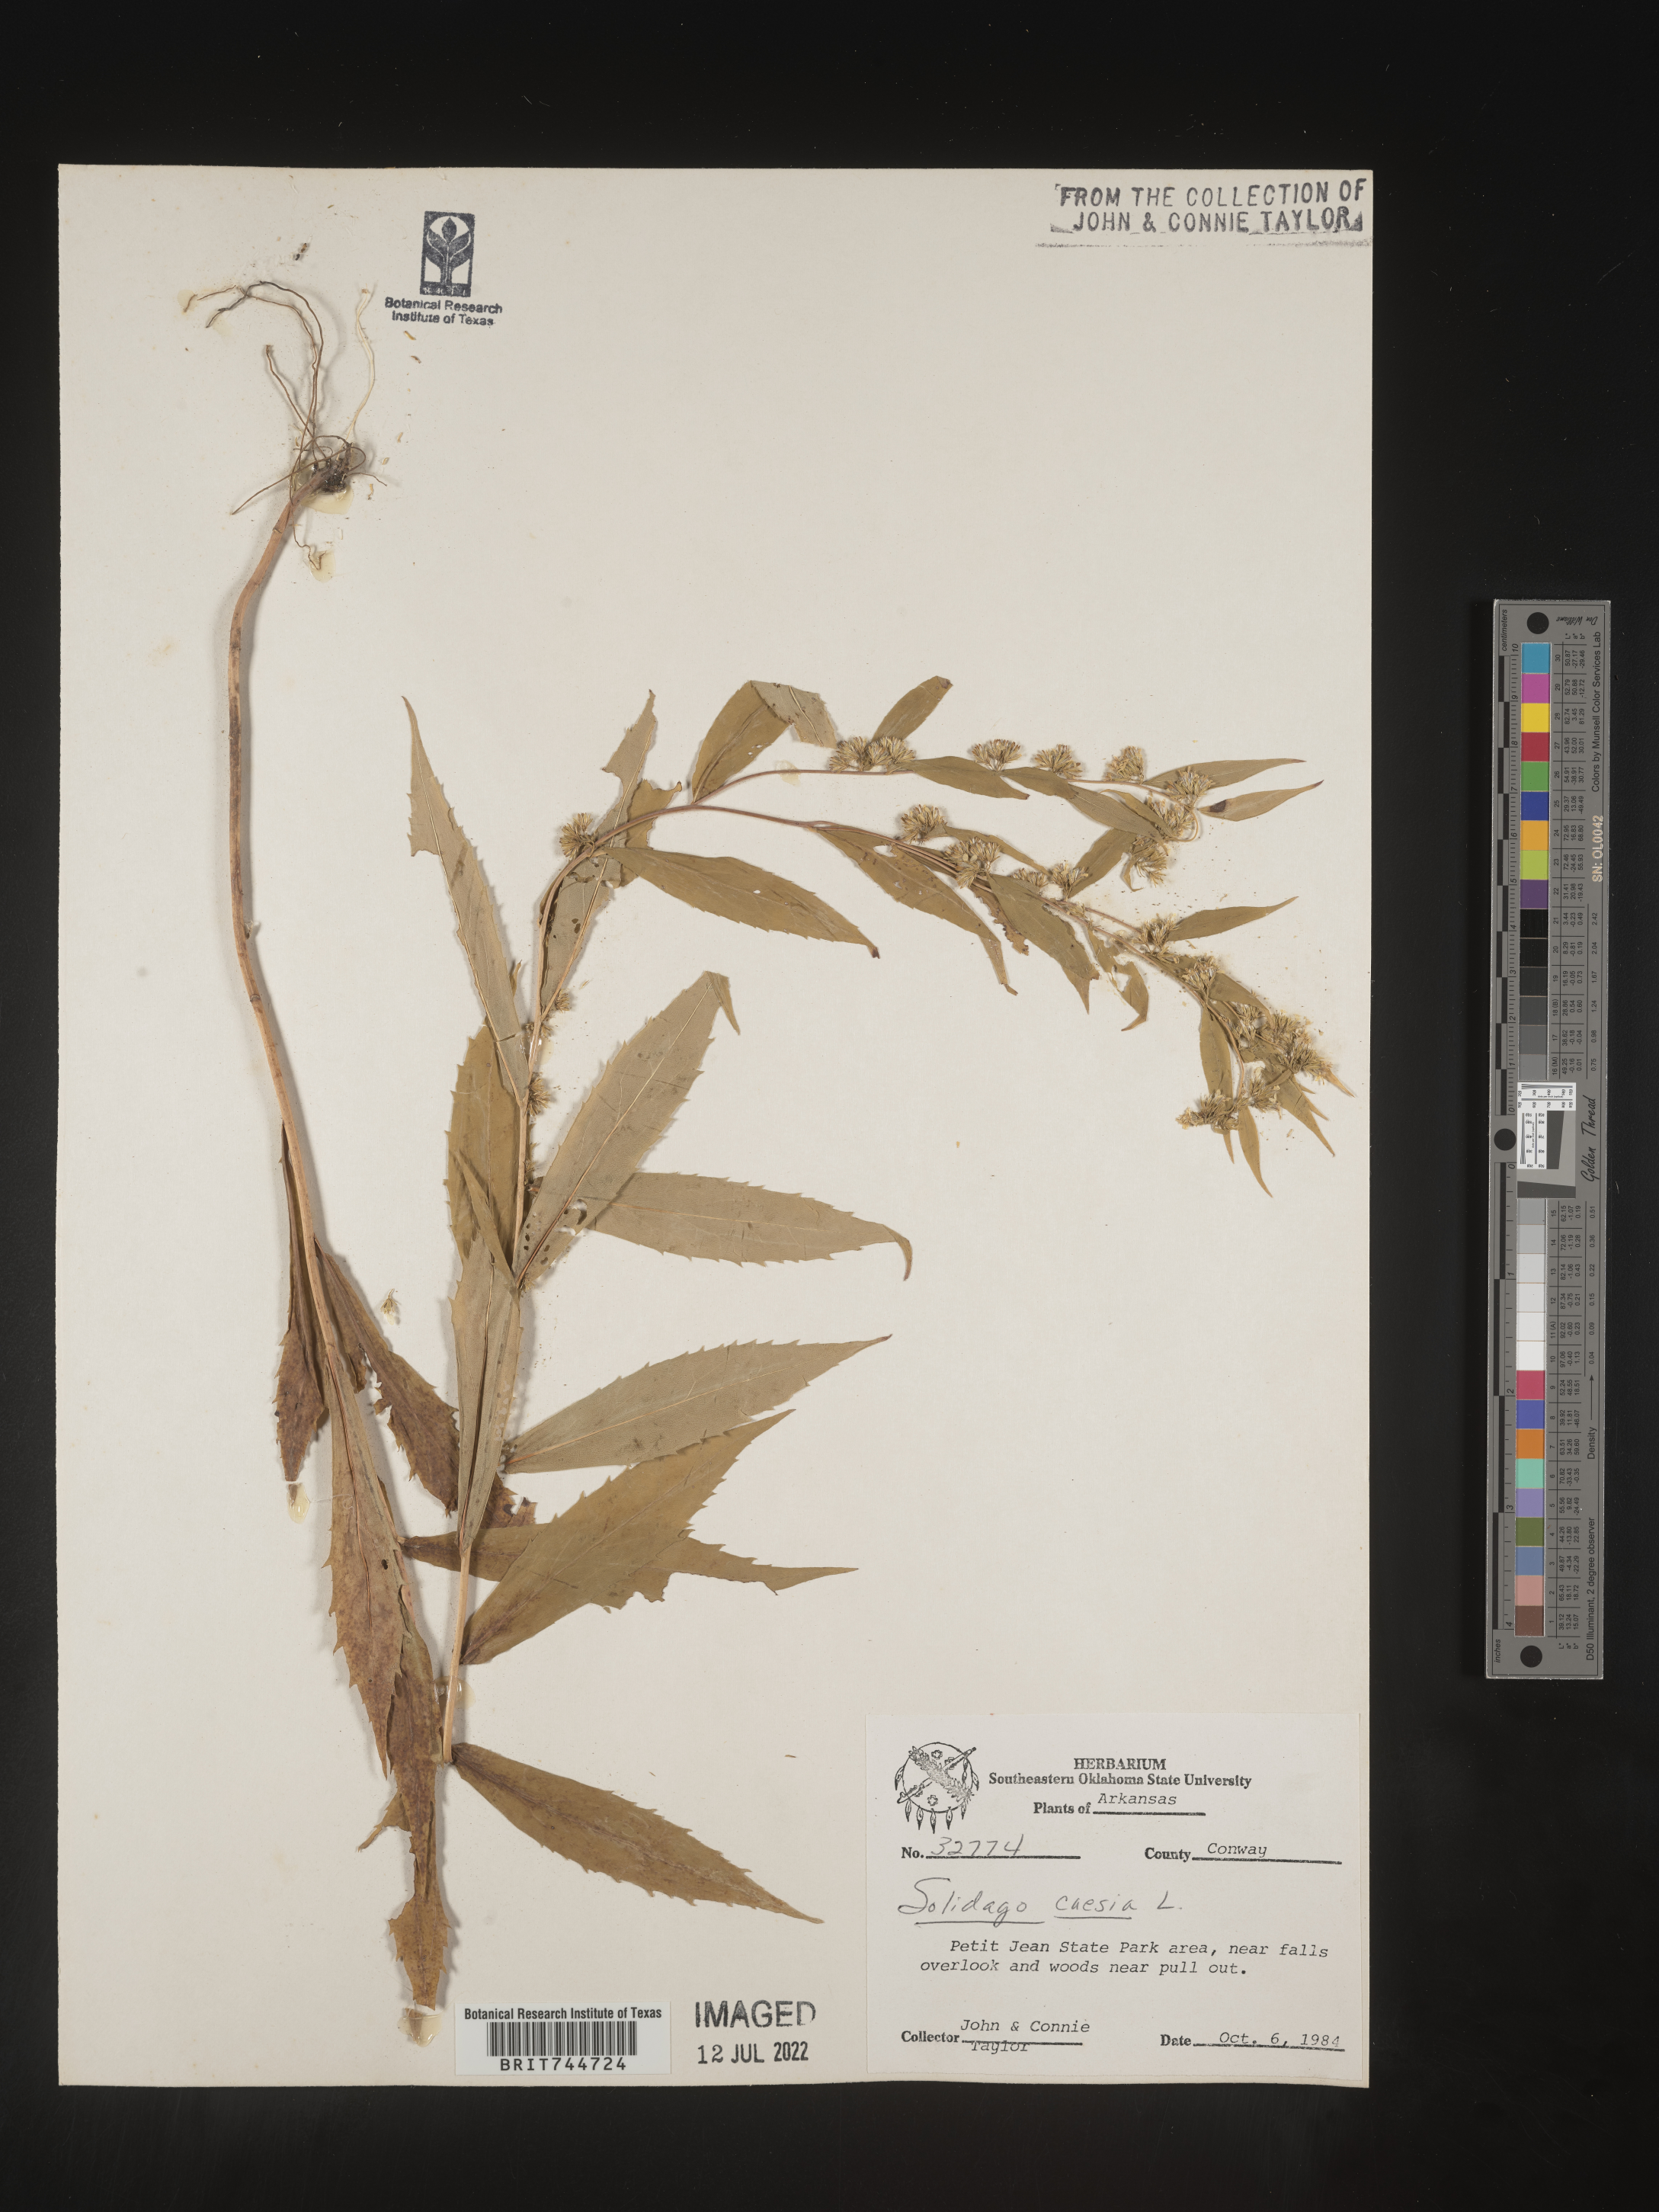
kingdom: Plantae
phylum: Tracheophyta
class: Magnoliopsida
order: Asterales
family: Asteraceae
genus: Solidago
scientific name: Solidago caesia
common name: Woodland goldenrod
